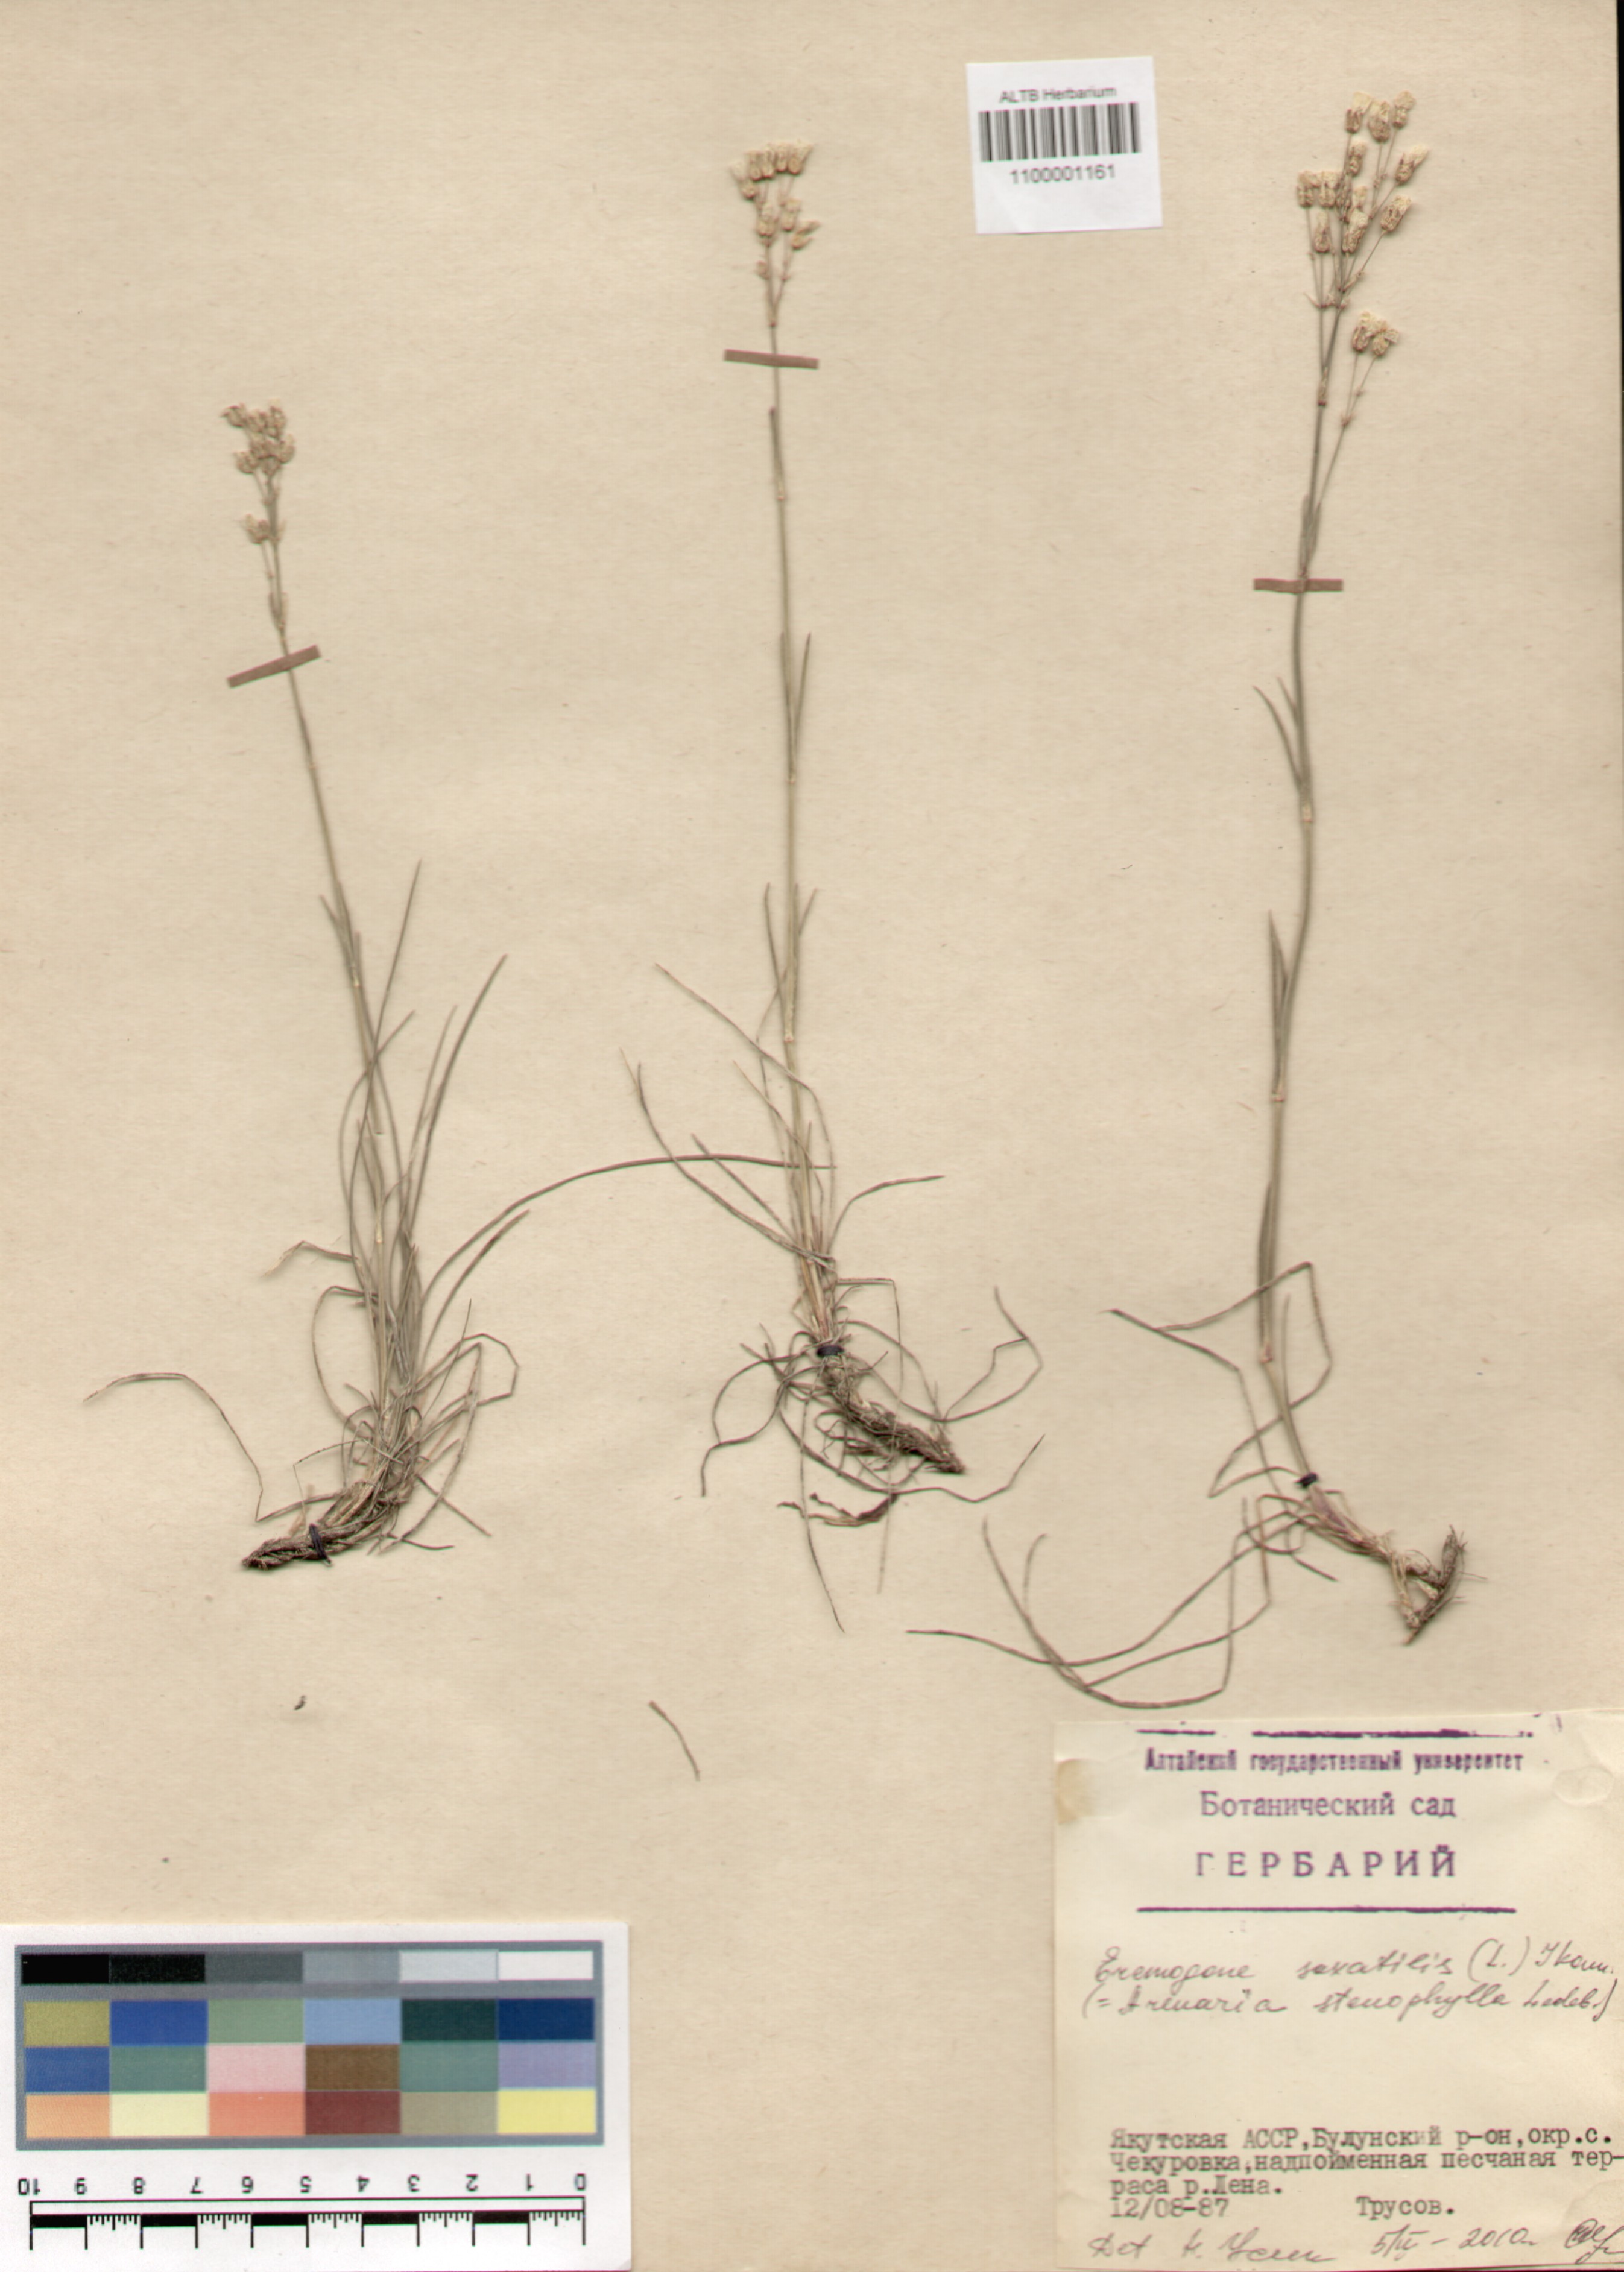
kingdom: Plantae
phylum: Tracheophyta
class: Magnoliopsida
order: Caryophyllales
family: Caryophyllaceae
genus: Eremogone
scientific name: Eremogone saxatilis
